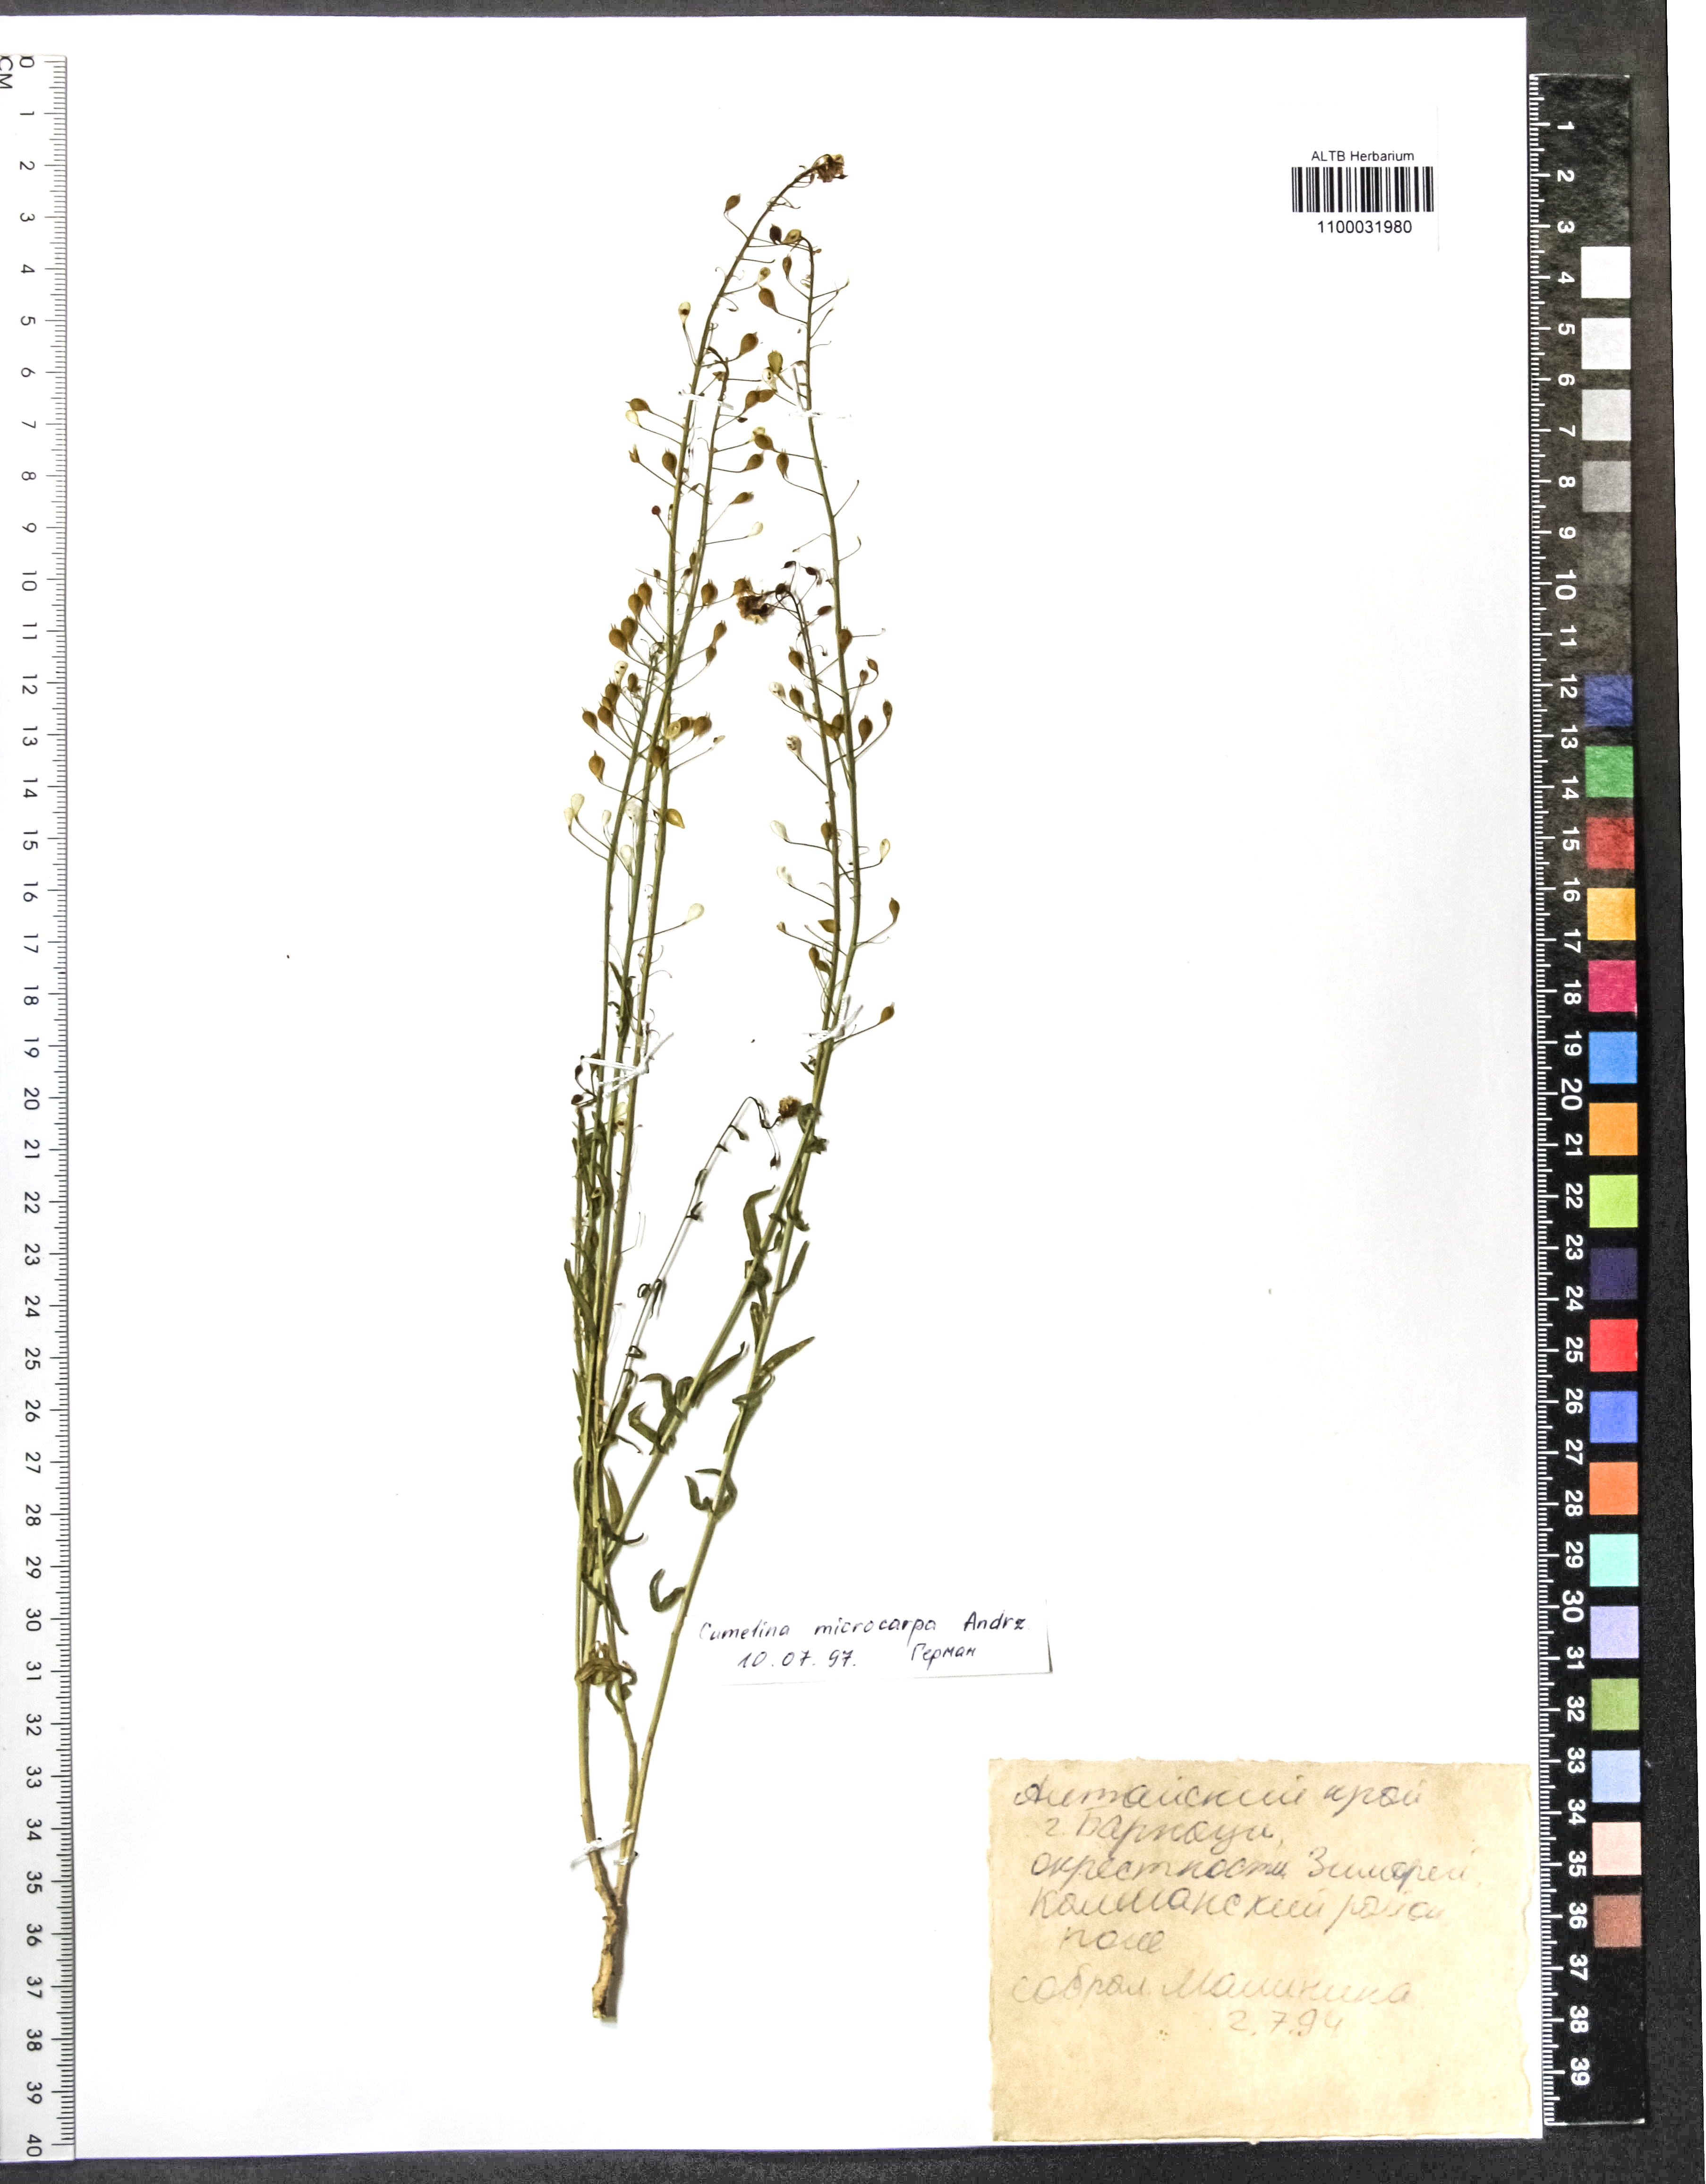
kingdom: Plantae
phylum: Tracheophyta
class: Magnoliopsida
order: Brassicales
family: Brassicaceae
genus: Camelina
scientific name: Camelina microcarpa
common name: Lesser gold-of-pleasure
